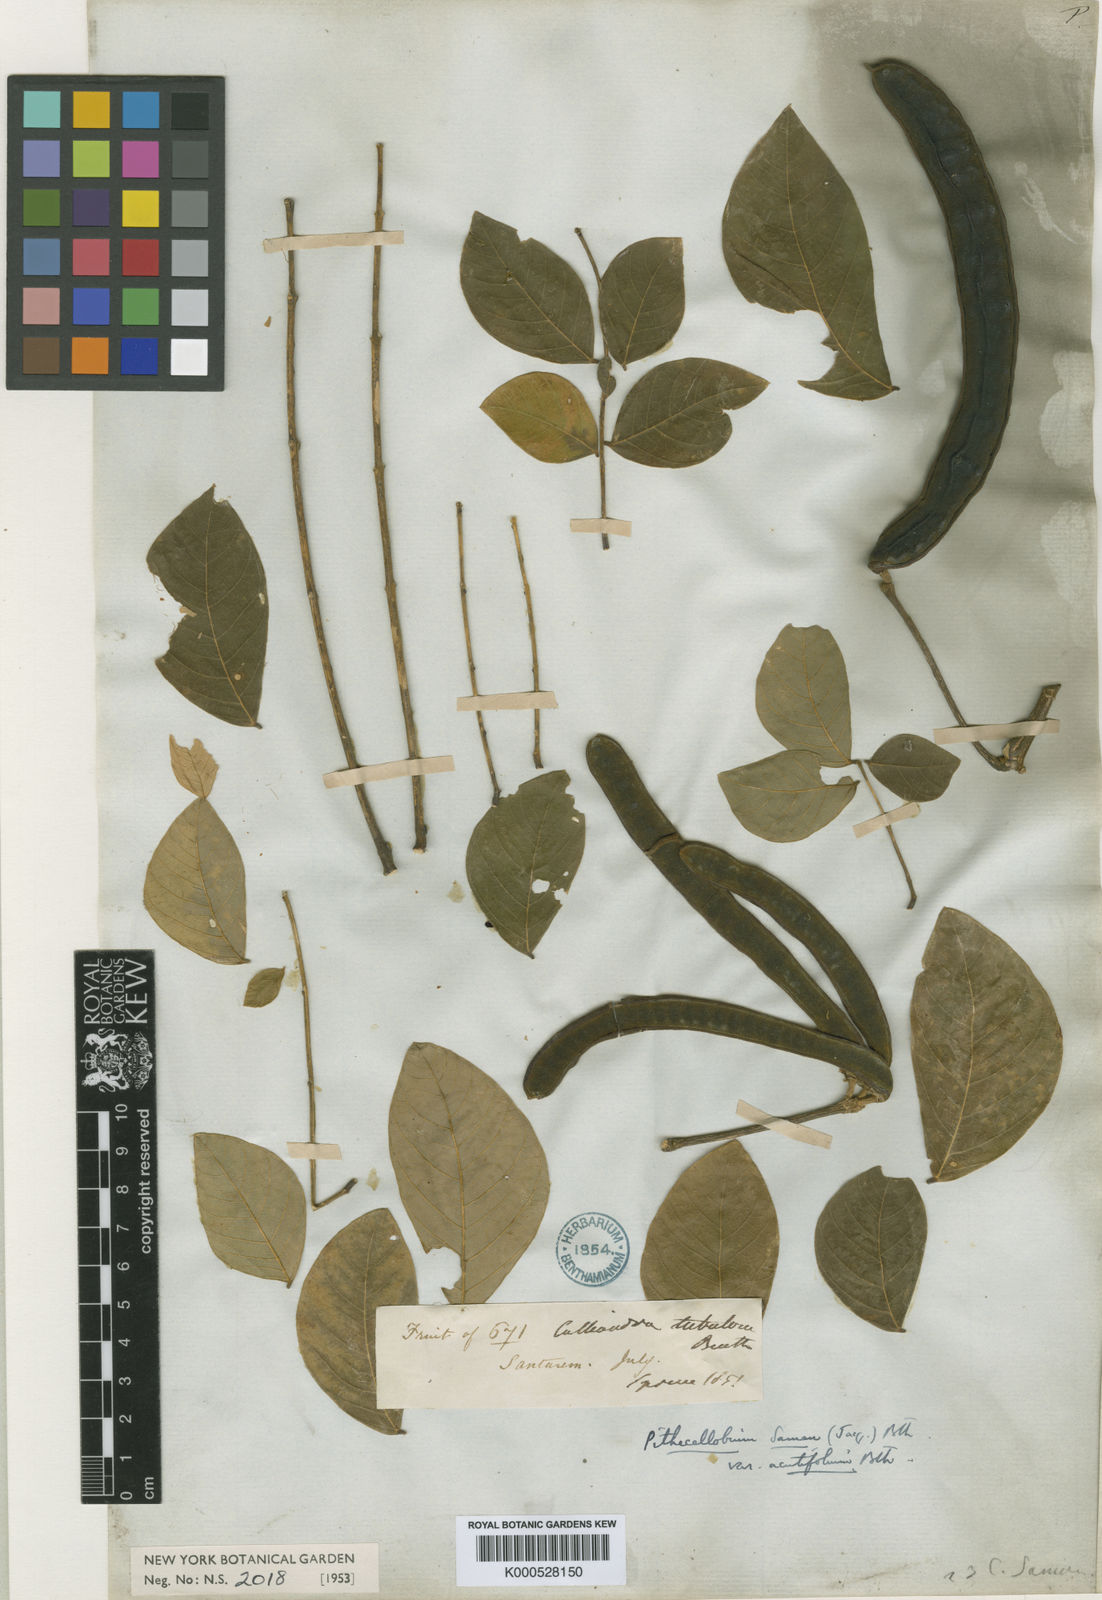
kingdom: Plantae
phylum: Tracheophyta
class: Magnoliopsida
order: Fabales
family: Fabaceae
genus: Samanea
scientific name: Samanea saman
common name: Raintree
